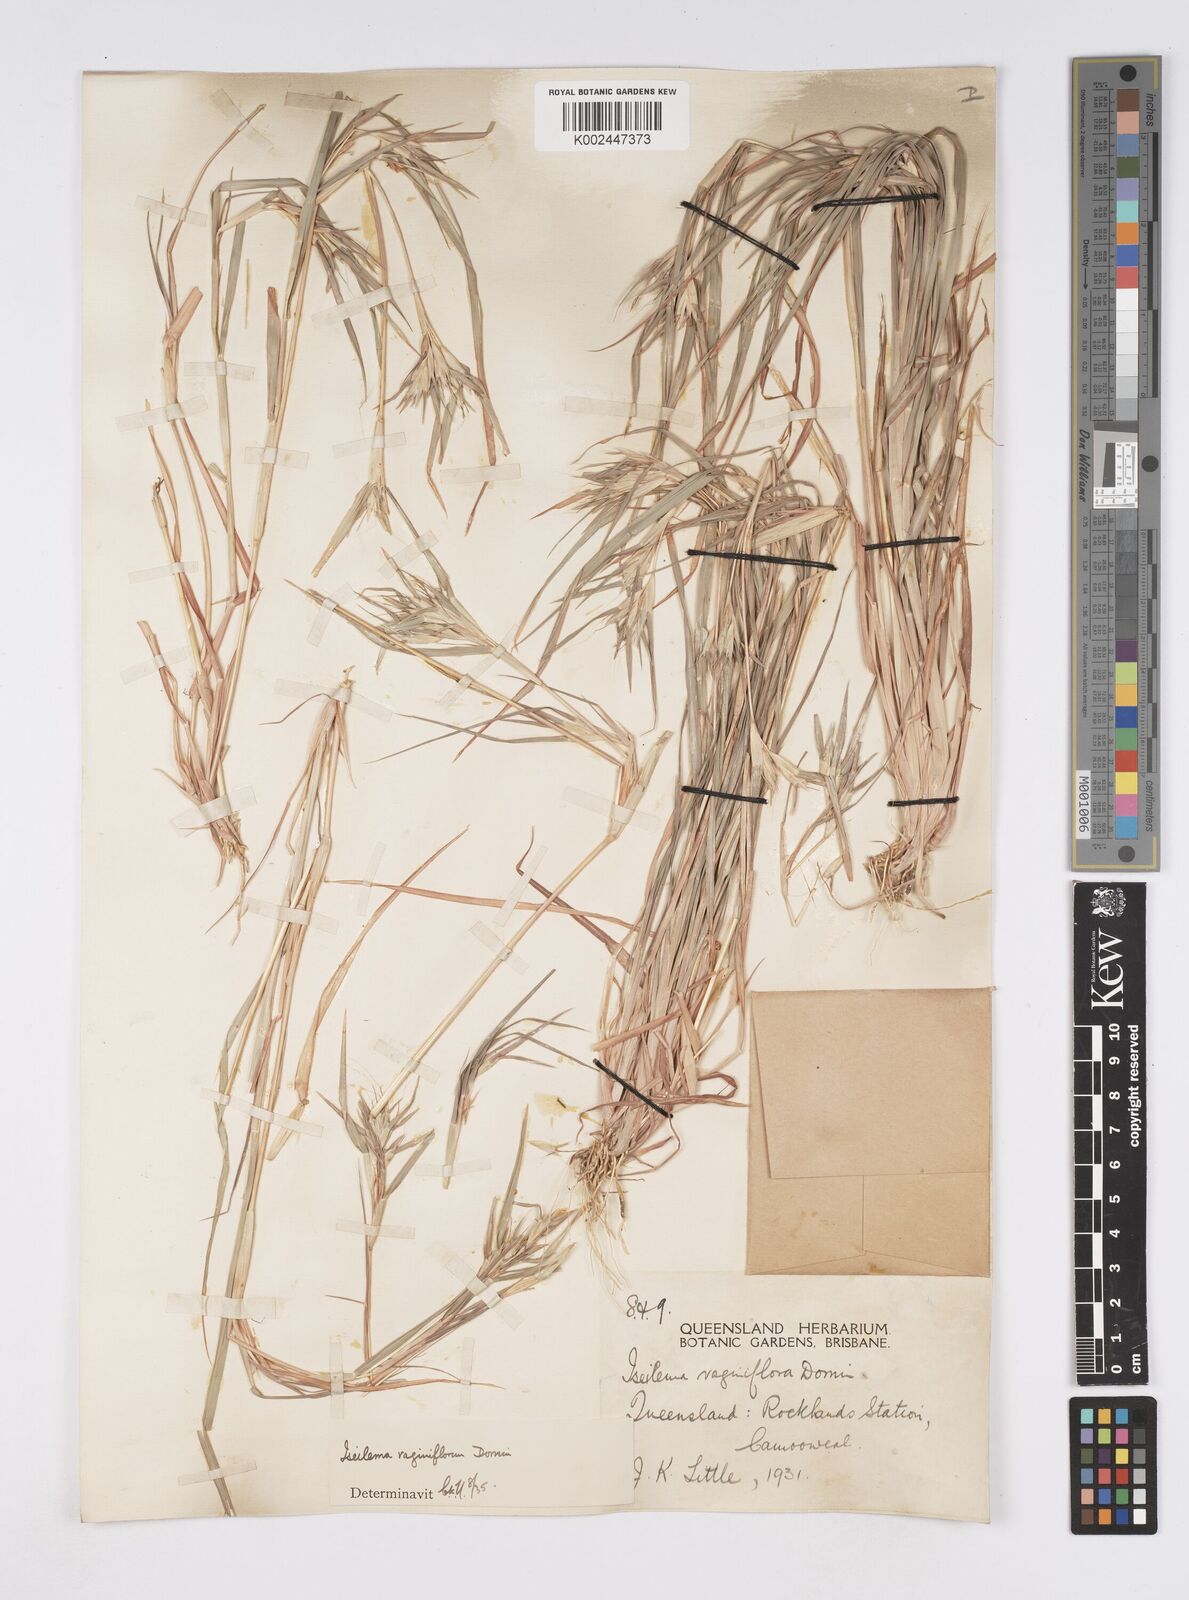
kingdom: Plantae
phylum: Tracheophyta
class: Liliopsida
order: Poales
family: Poaceae
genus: Iseilema
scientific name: Iseilema vaginiflorum
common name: Red flinders grass
